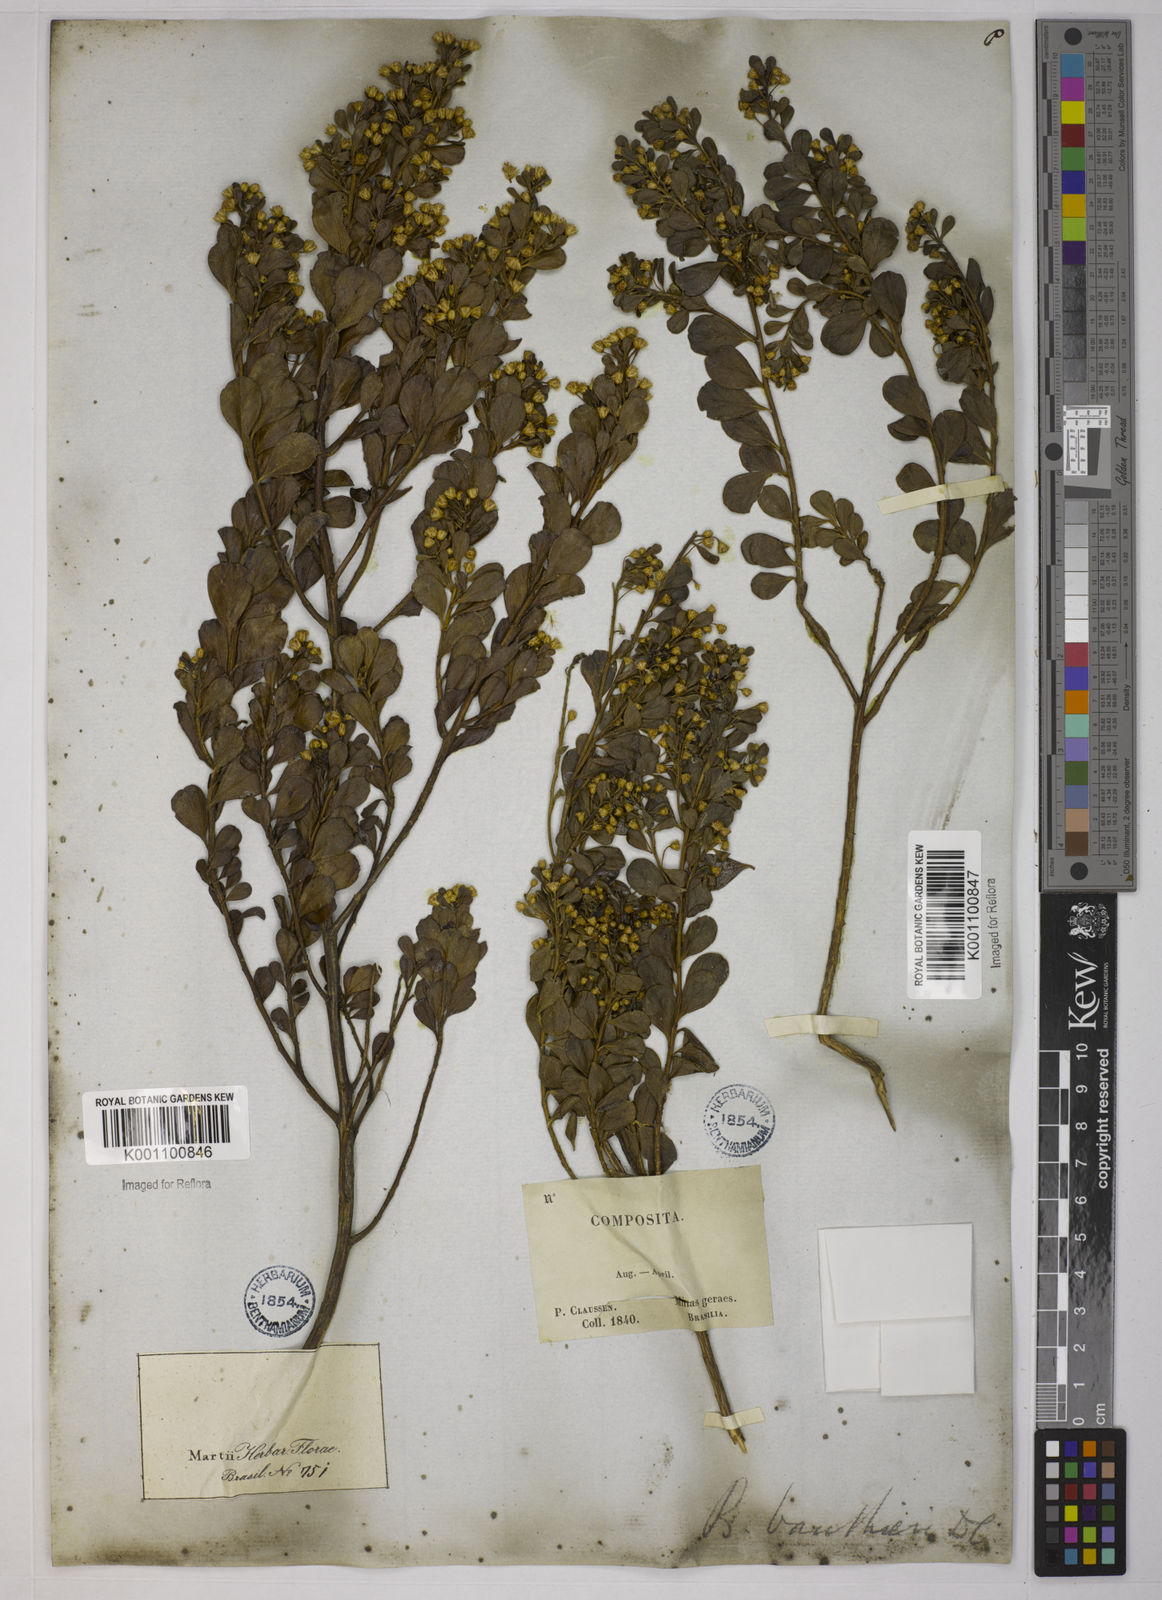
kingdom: Plantae
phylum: Tracheophyta
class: Magnoliopsida
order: Asterales
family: Asteraceae
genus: Baccharis
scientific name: Baccharis reticularia
